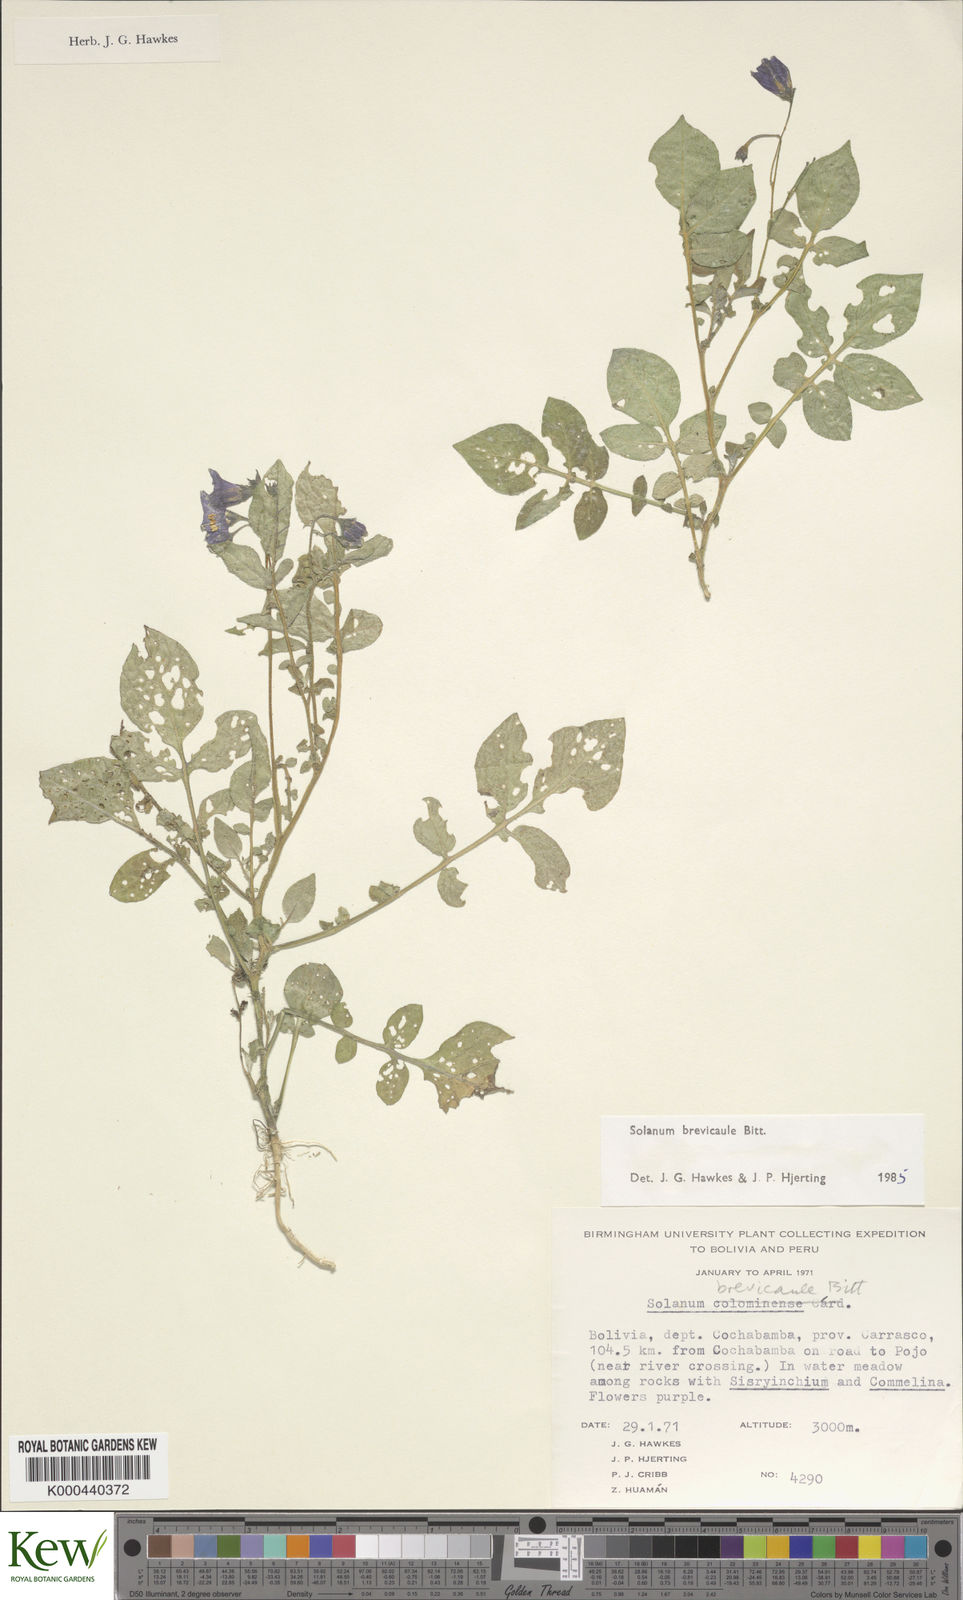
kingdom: Plantae
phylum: Tracheophyta
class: Magnoliopsida
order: Solanales
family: Solanaceae
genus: Solanum
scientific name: Solanum brevicaule
